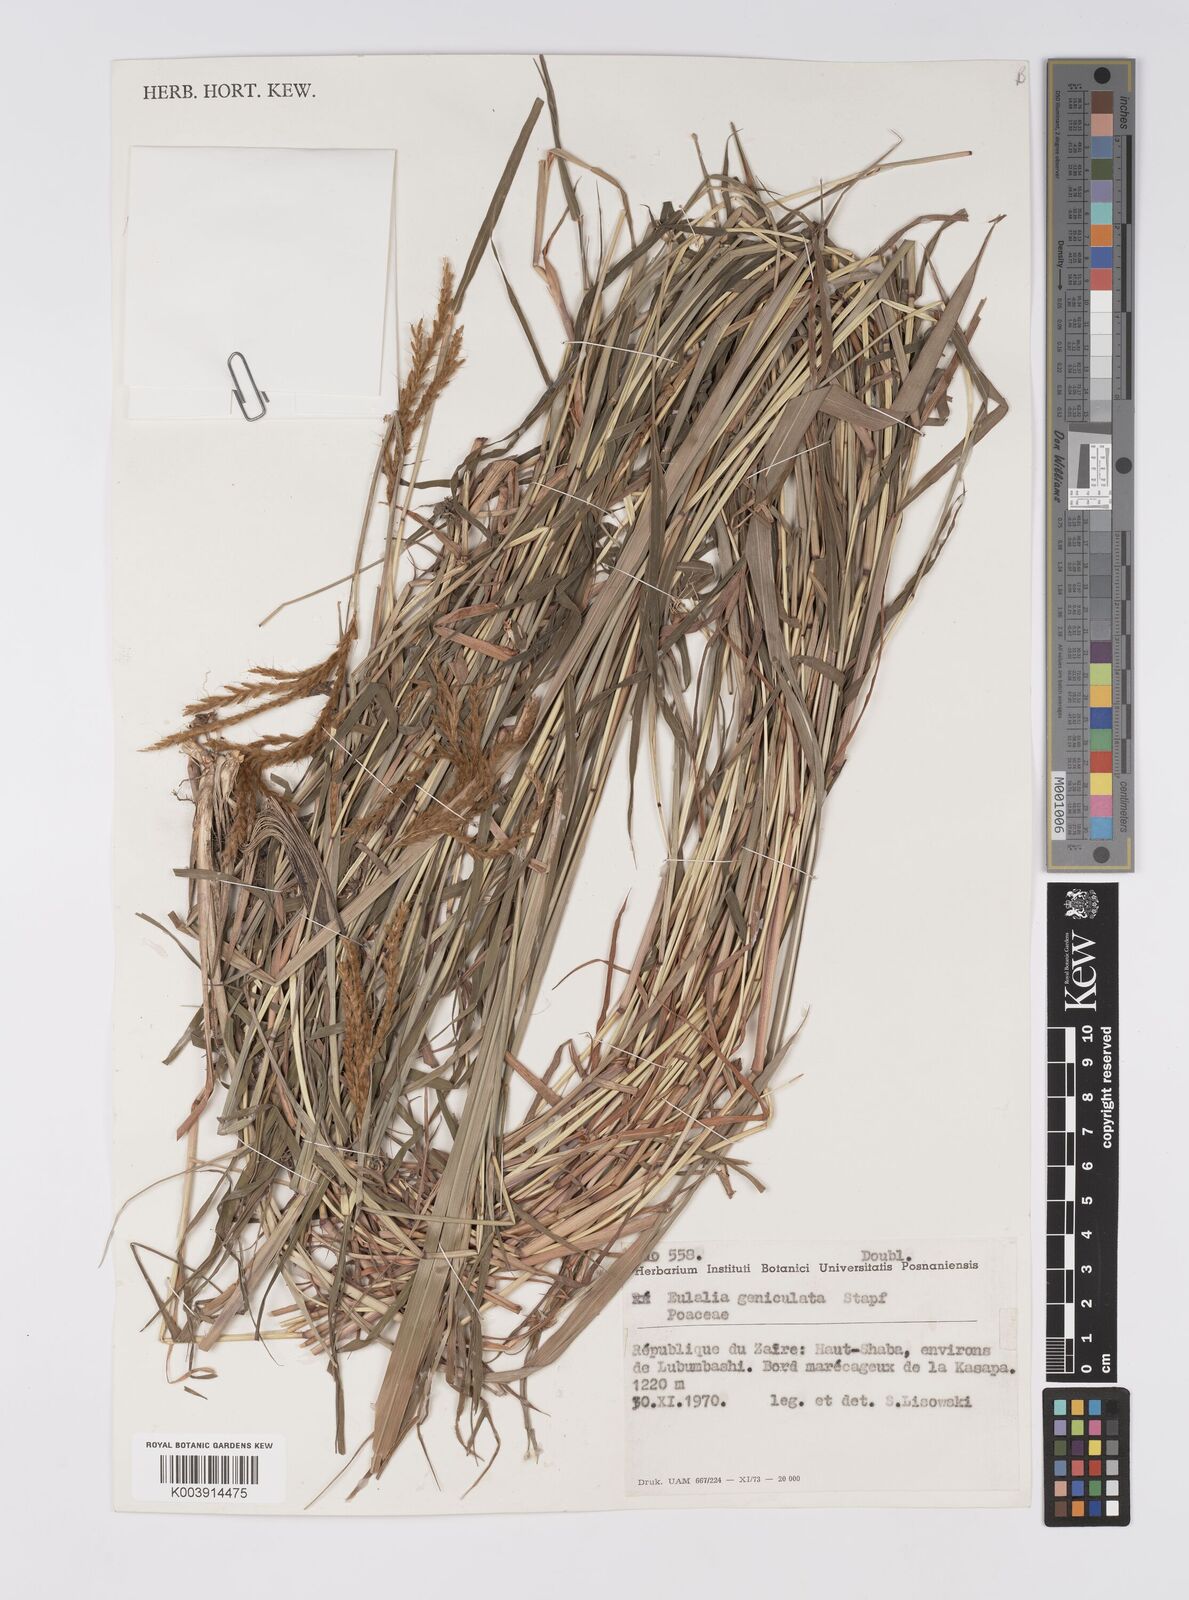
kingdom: Plantae
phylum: Tracheophyta
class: Liliopsida
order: Poales
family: Poaceae
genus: Eulalia
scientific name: Eulalia aurea
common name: Silky browntop
